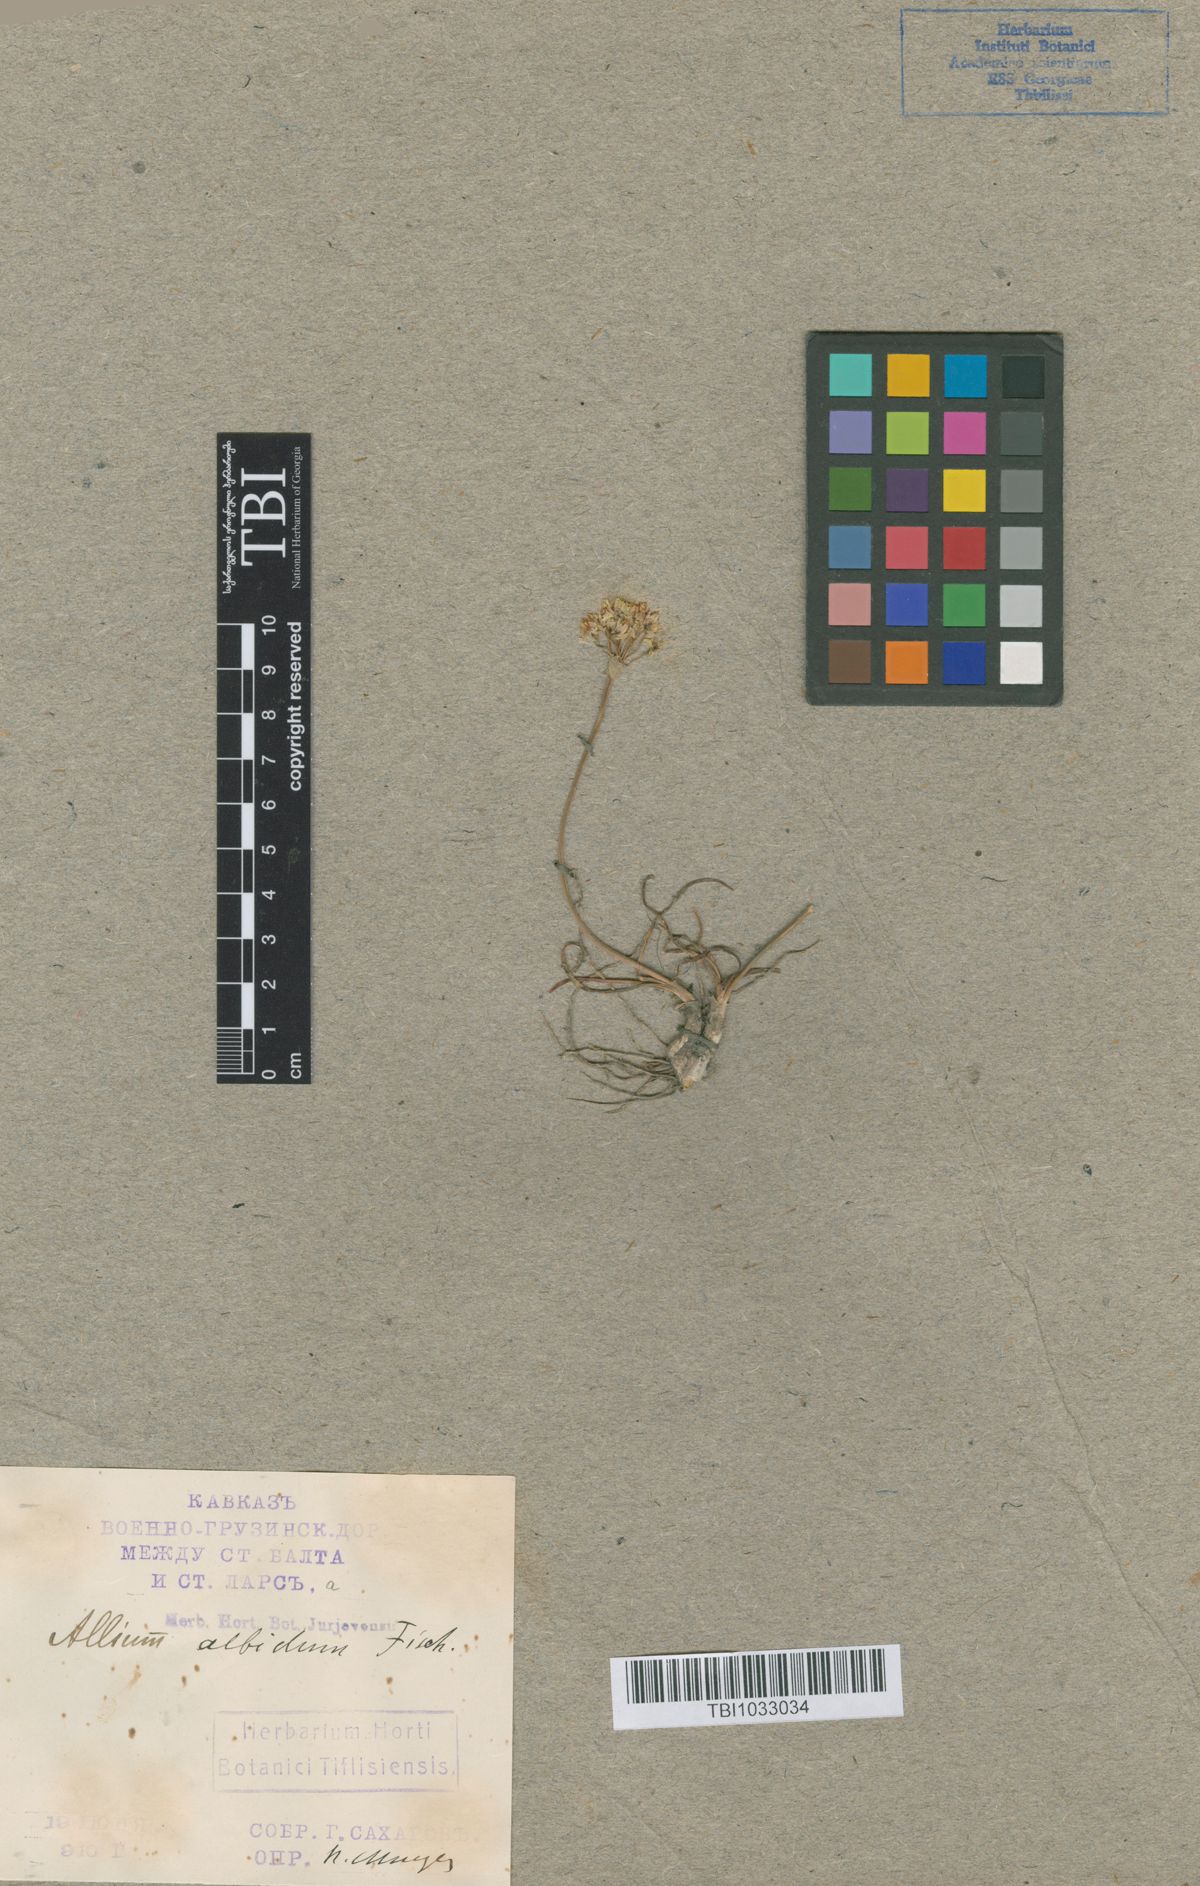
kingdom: Plantae
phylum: Tracheophyta
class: Liliopsida
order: Asparagales
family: Amaryllidaceae
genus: Allium
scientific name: Allium denudatum
